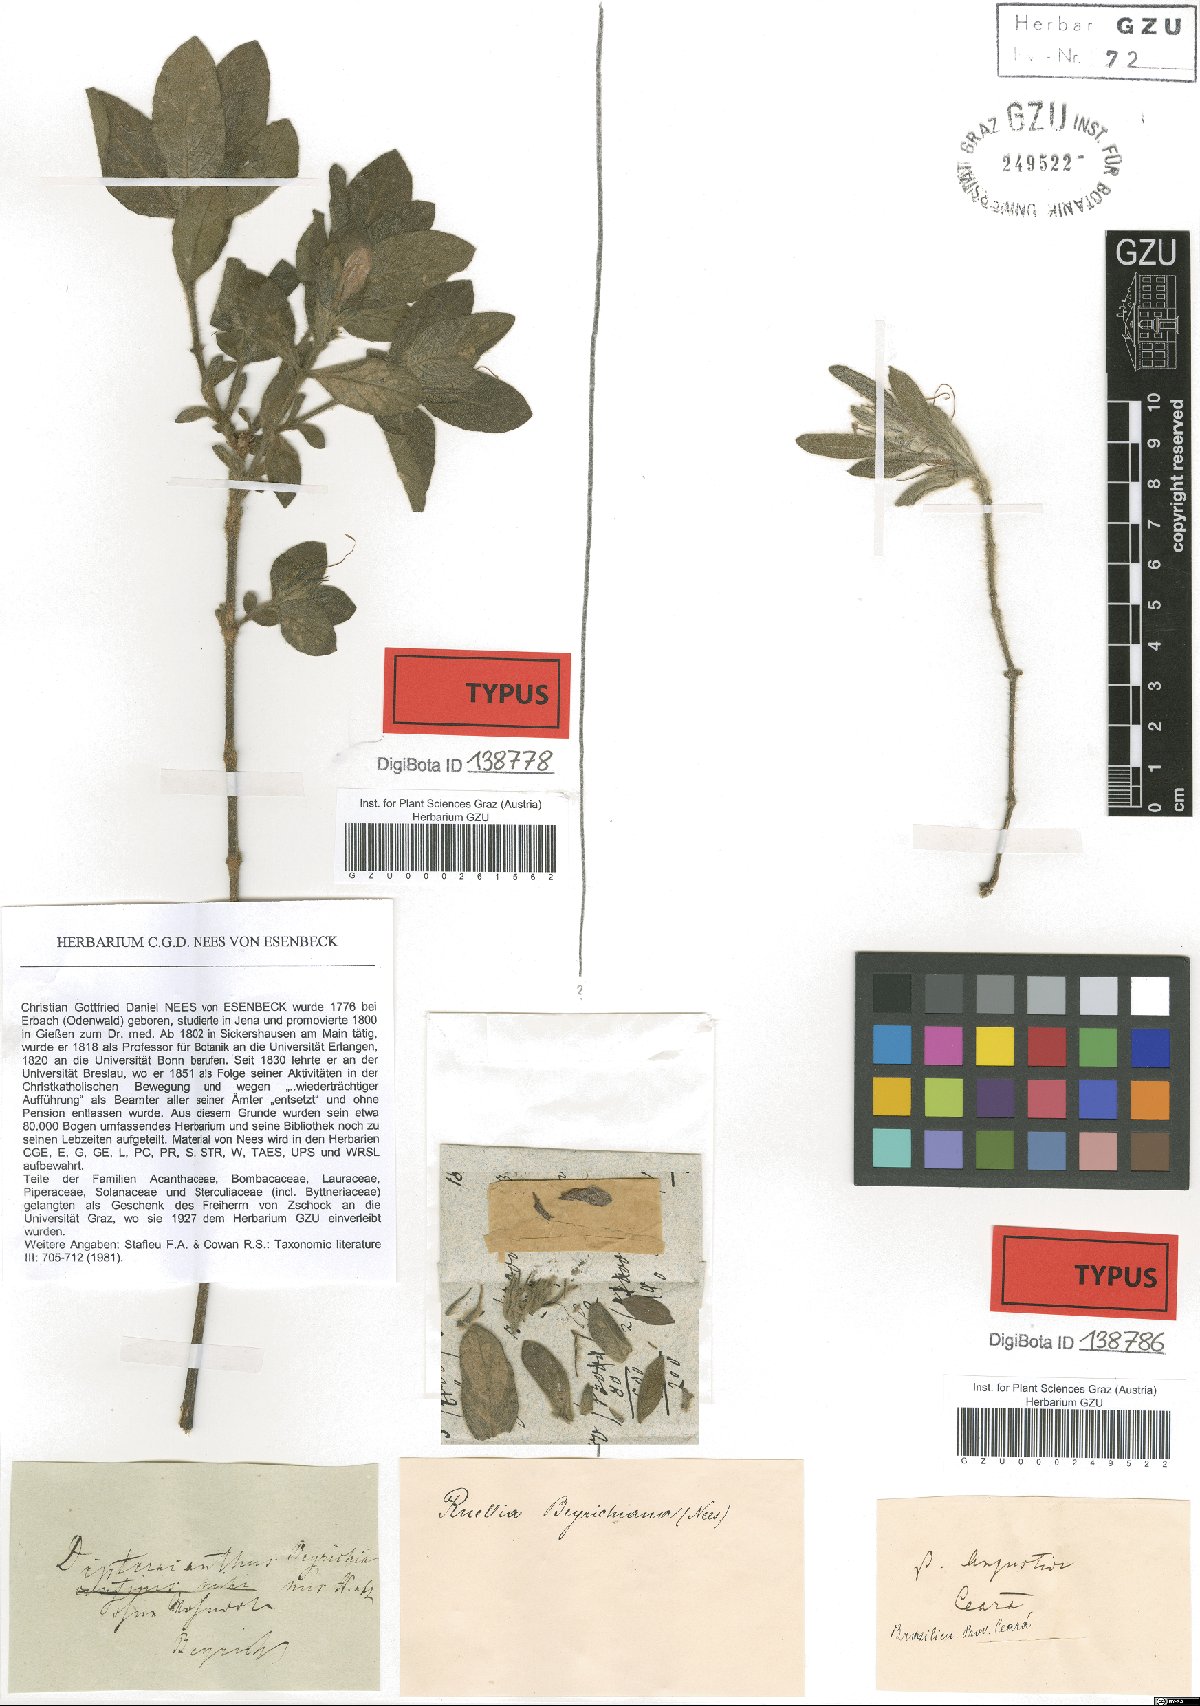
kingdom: Plantae
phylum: Tracheophyta
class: Magnoliopsida
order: Lamiales
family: Acanthaceae
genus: Ruellia
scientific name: Ruellia beyrichiana
